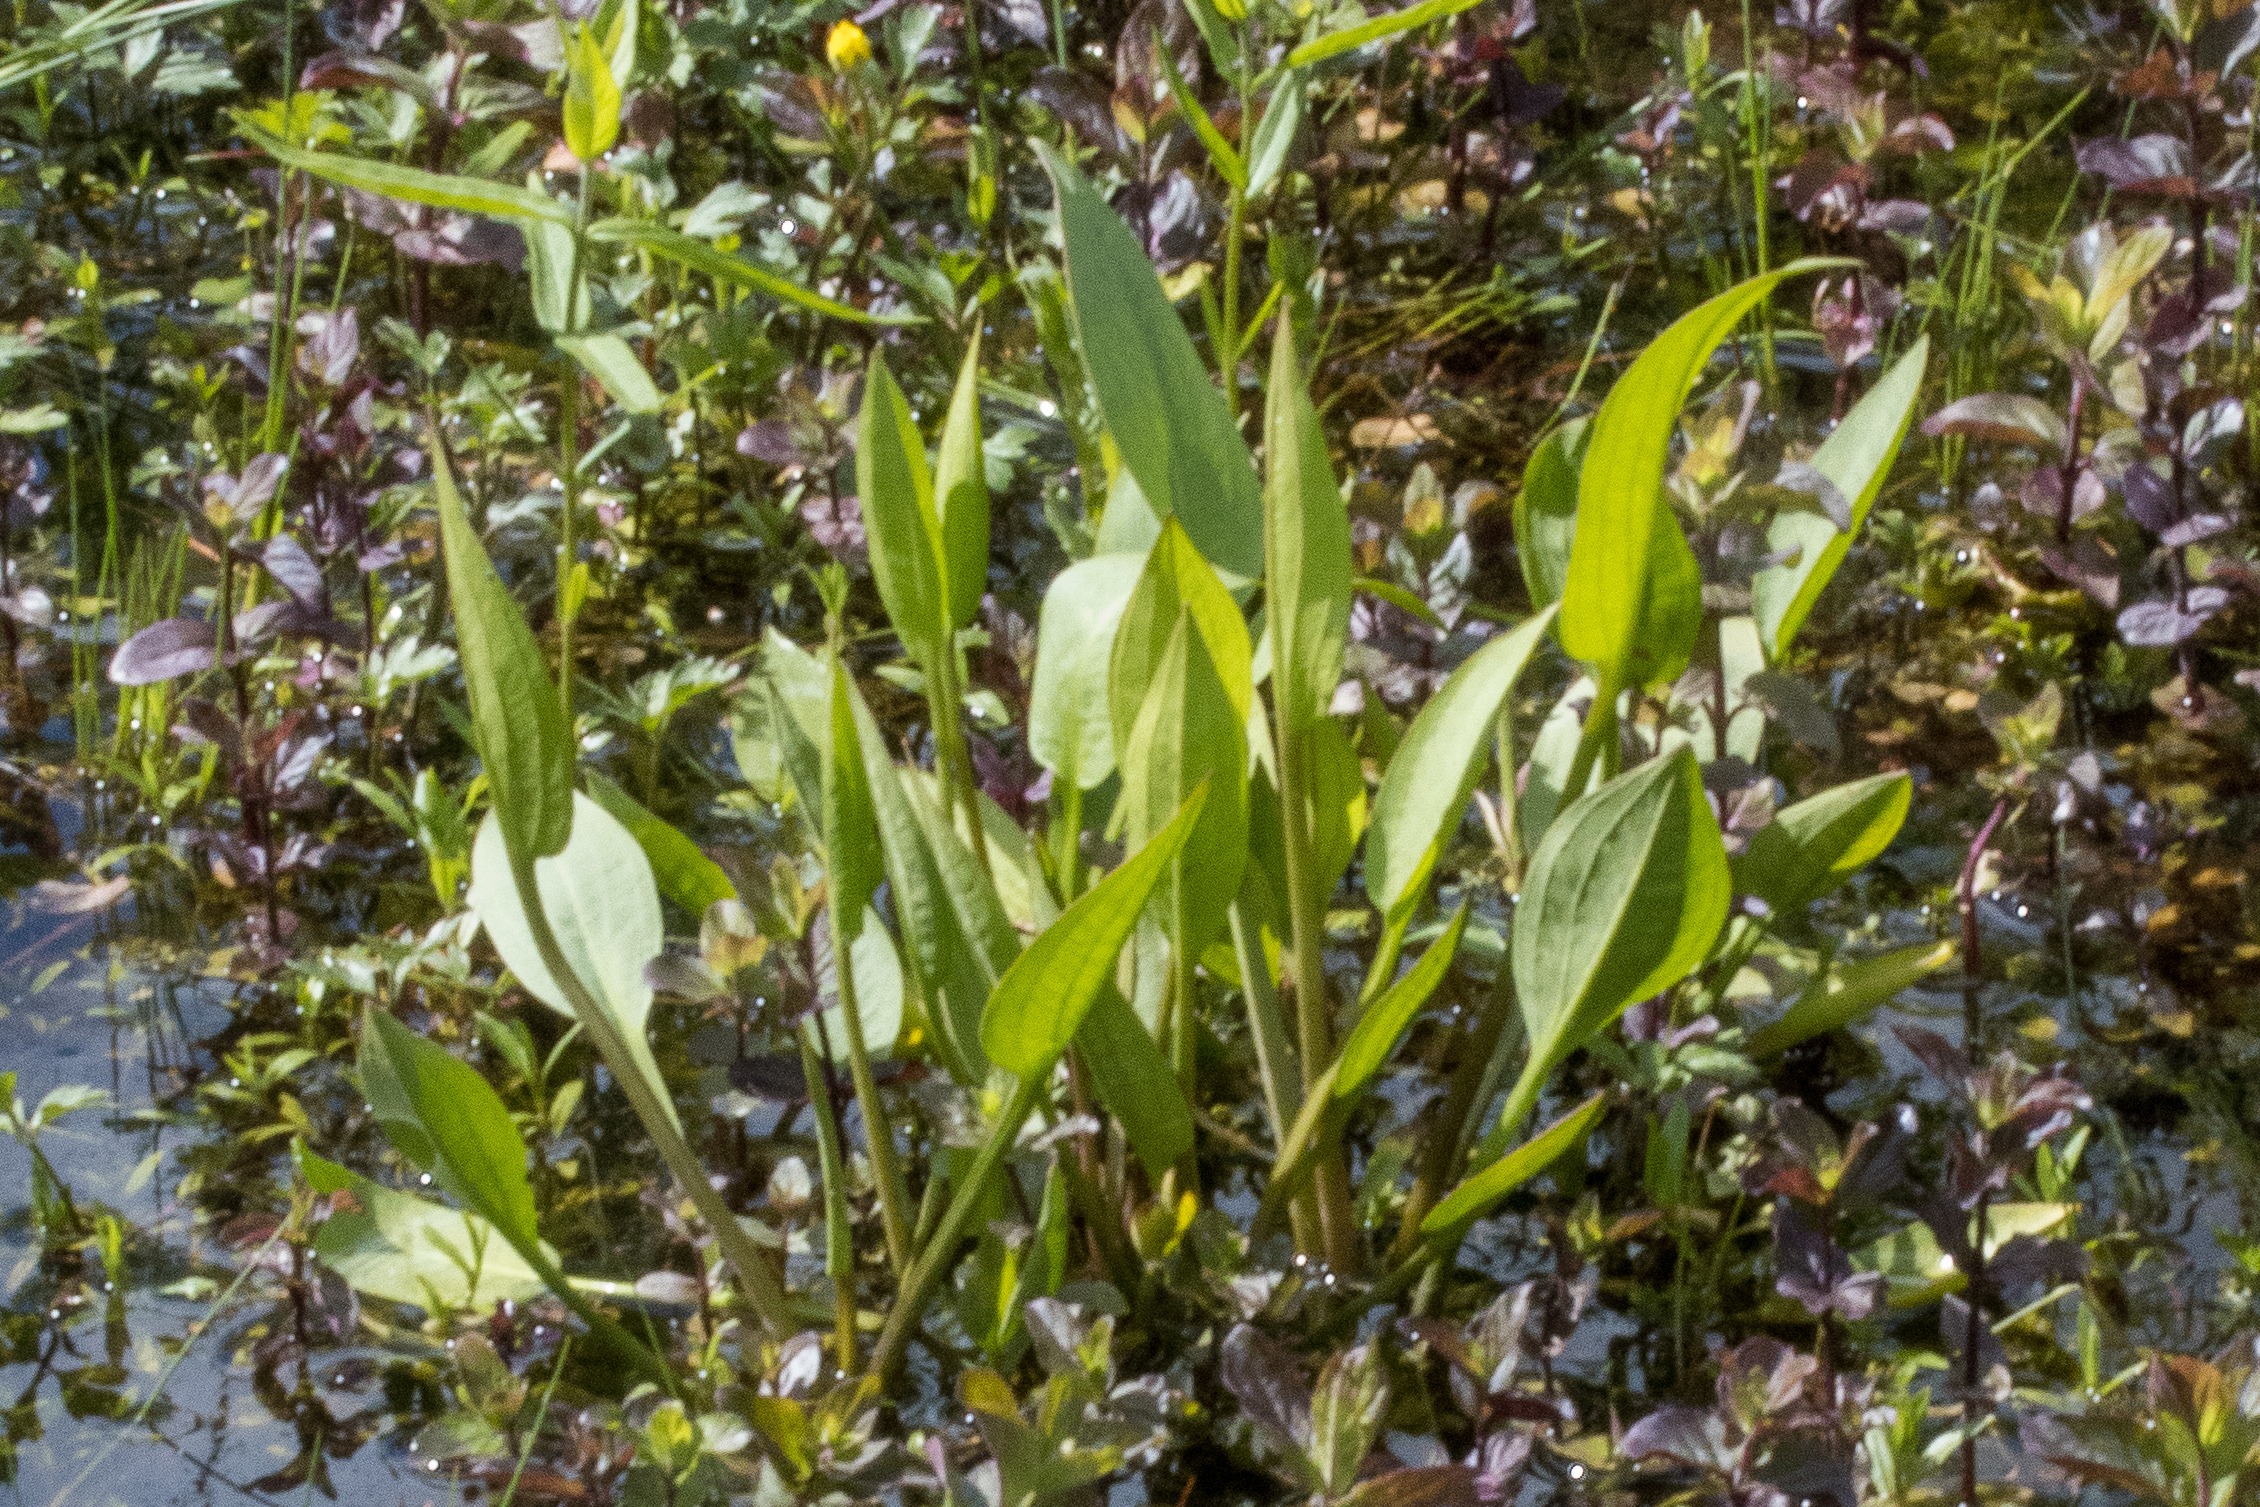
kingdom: Plantae
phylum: Tracheophyta
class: Liliopsida
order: Alismatales
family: Alismataceae
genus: Alisma
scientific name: Alisma plantago-aquatica
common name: Vejbred-skeblad
